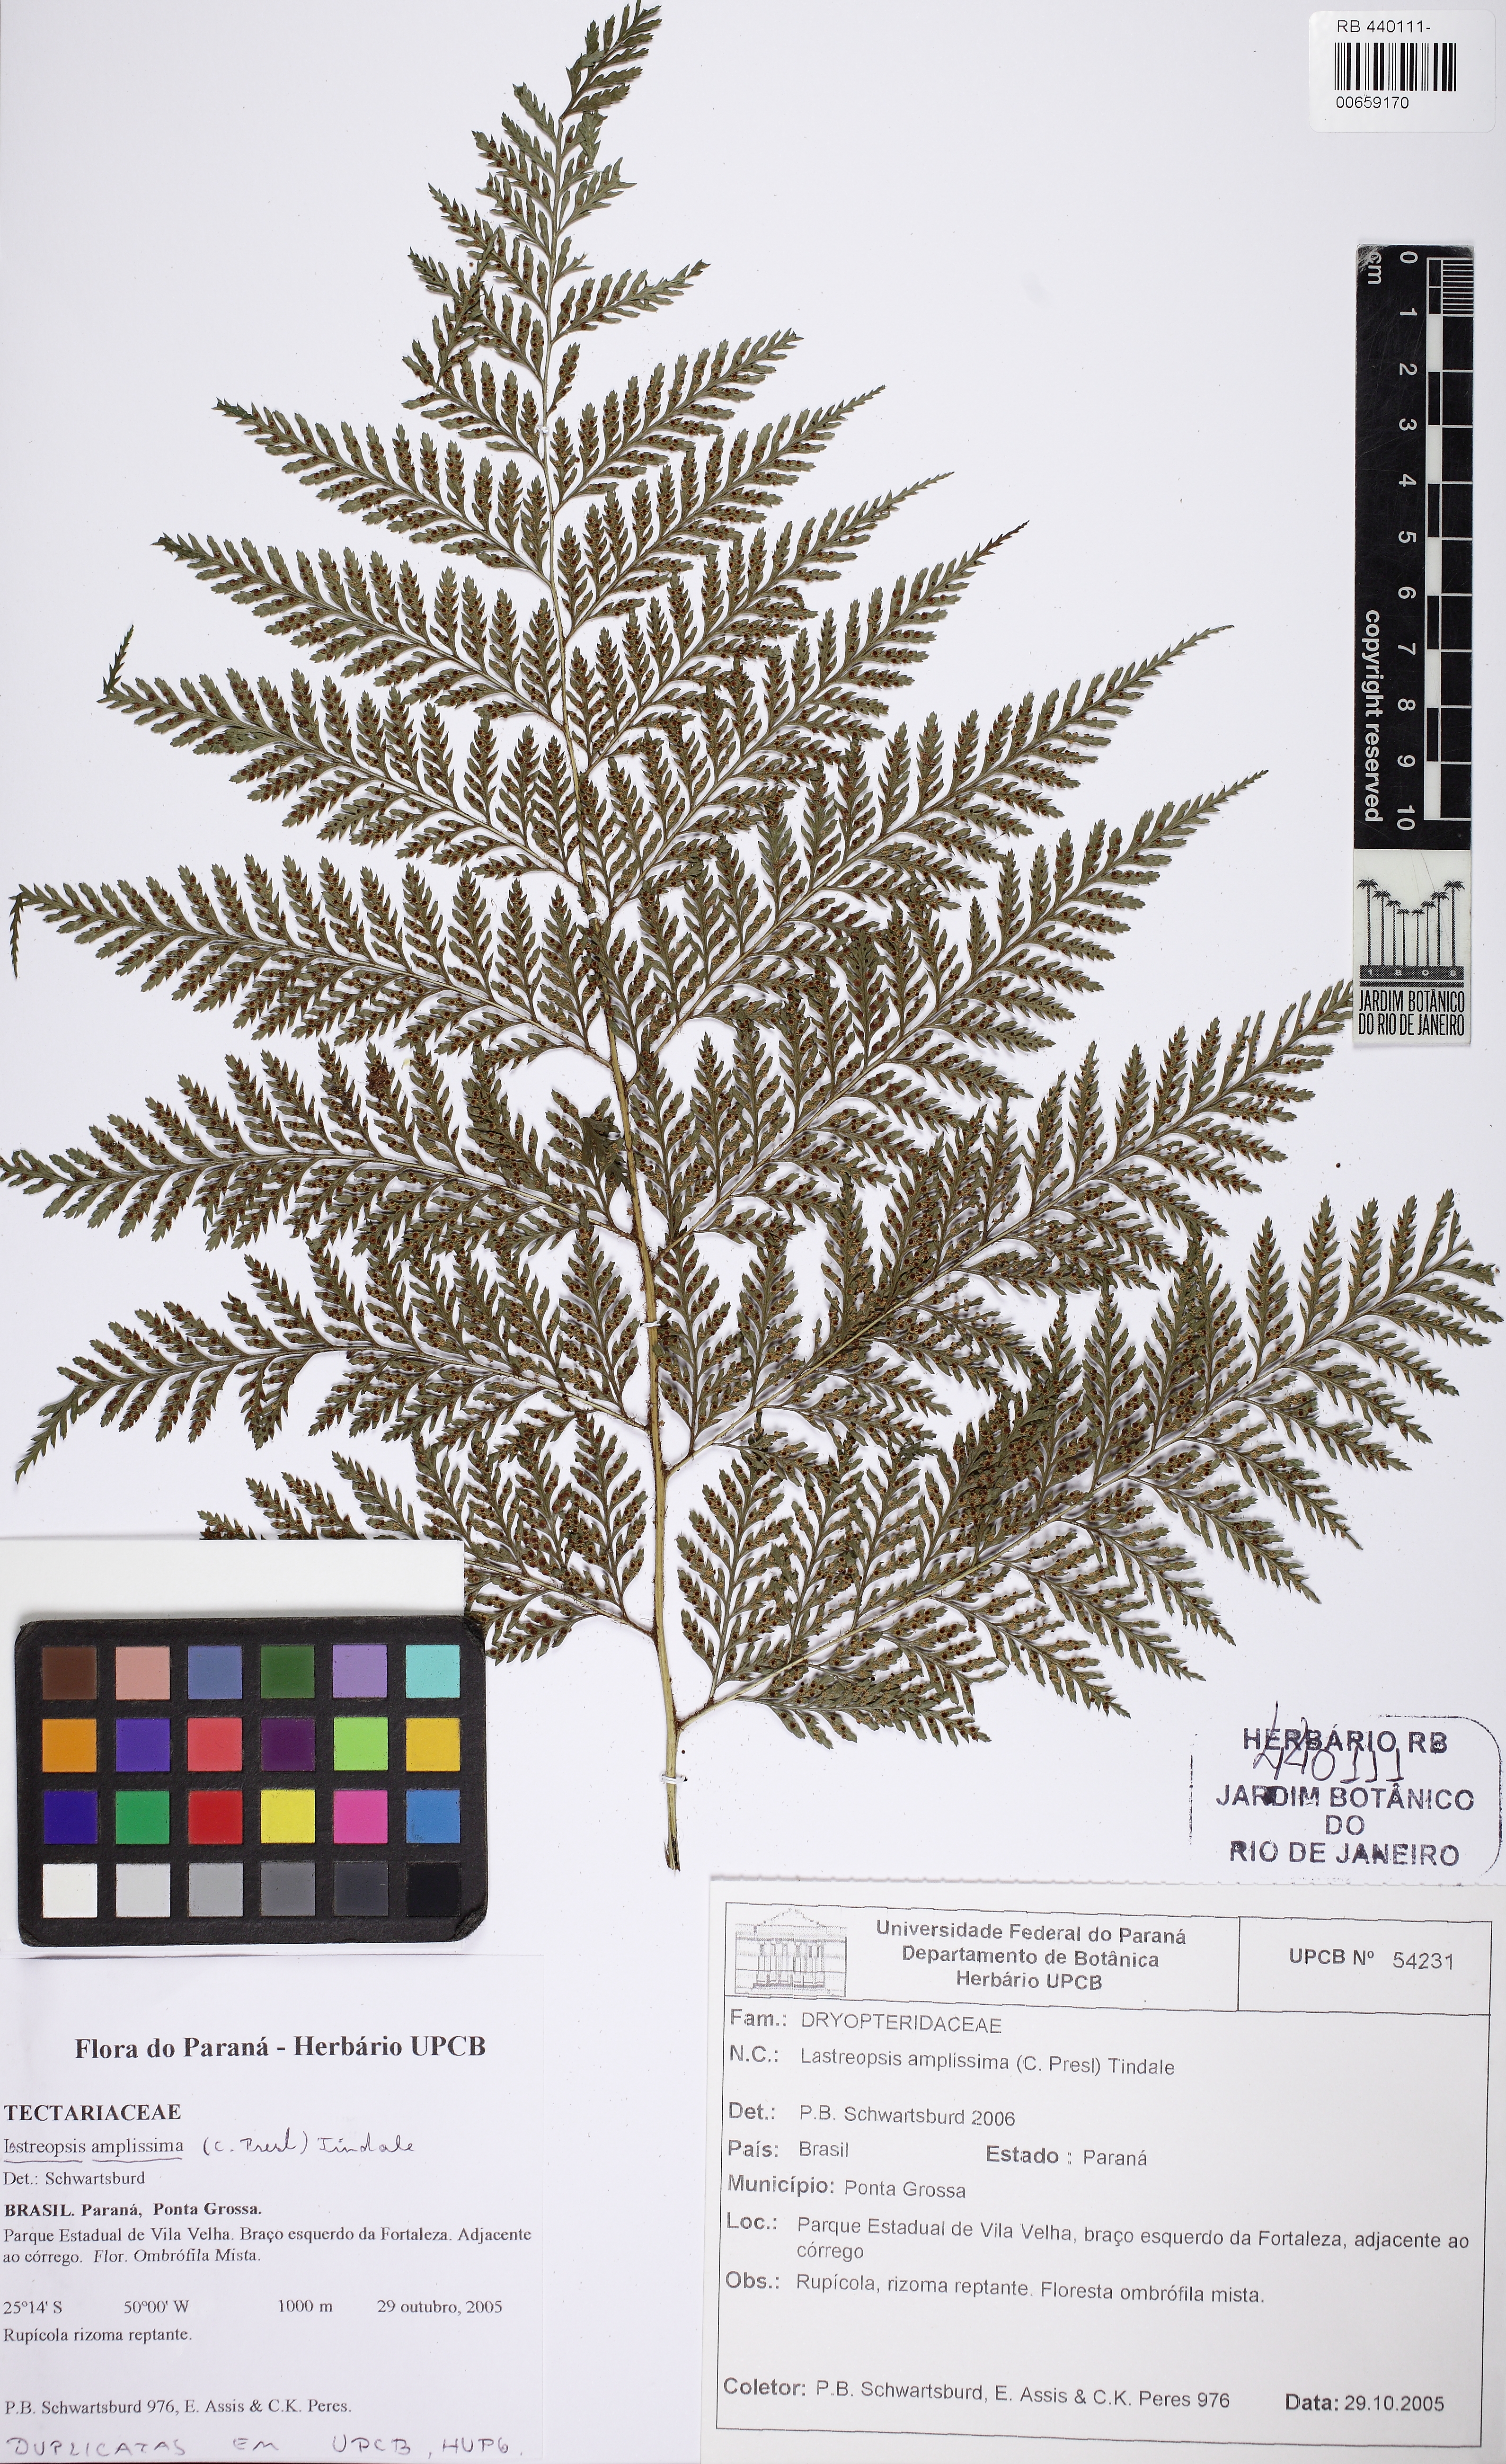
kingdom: Plantae
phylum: Tracheophyta
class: Polypodiopsida
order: Polypodiales
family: Dryopteridaceae
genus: Lastreopsis
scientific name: Lastreopsis amplissima
